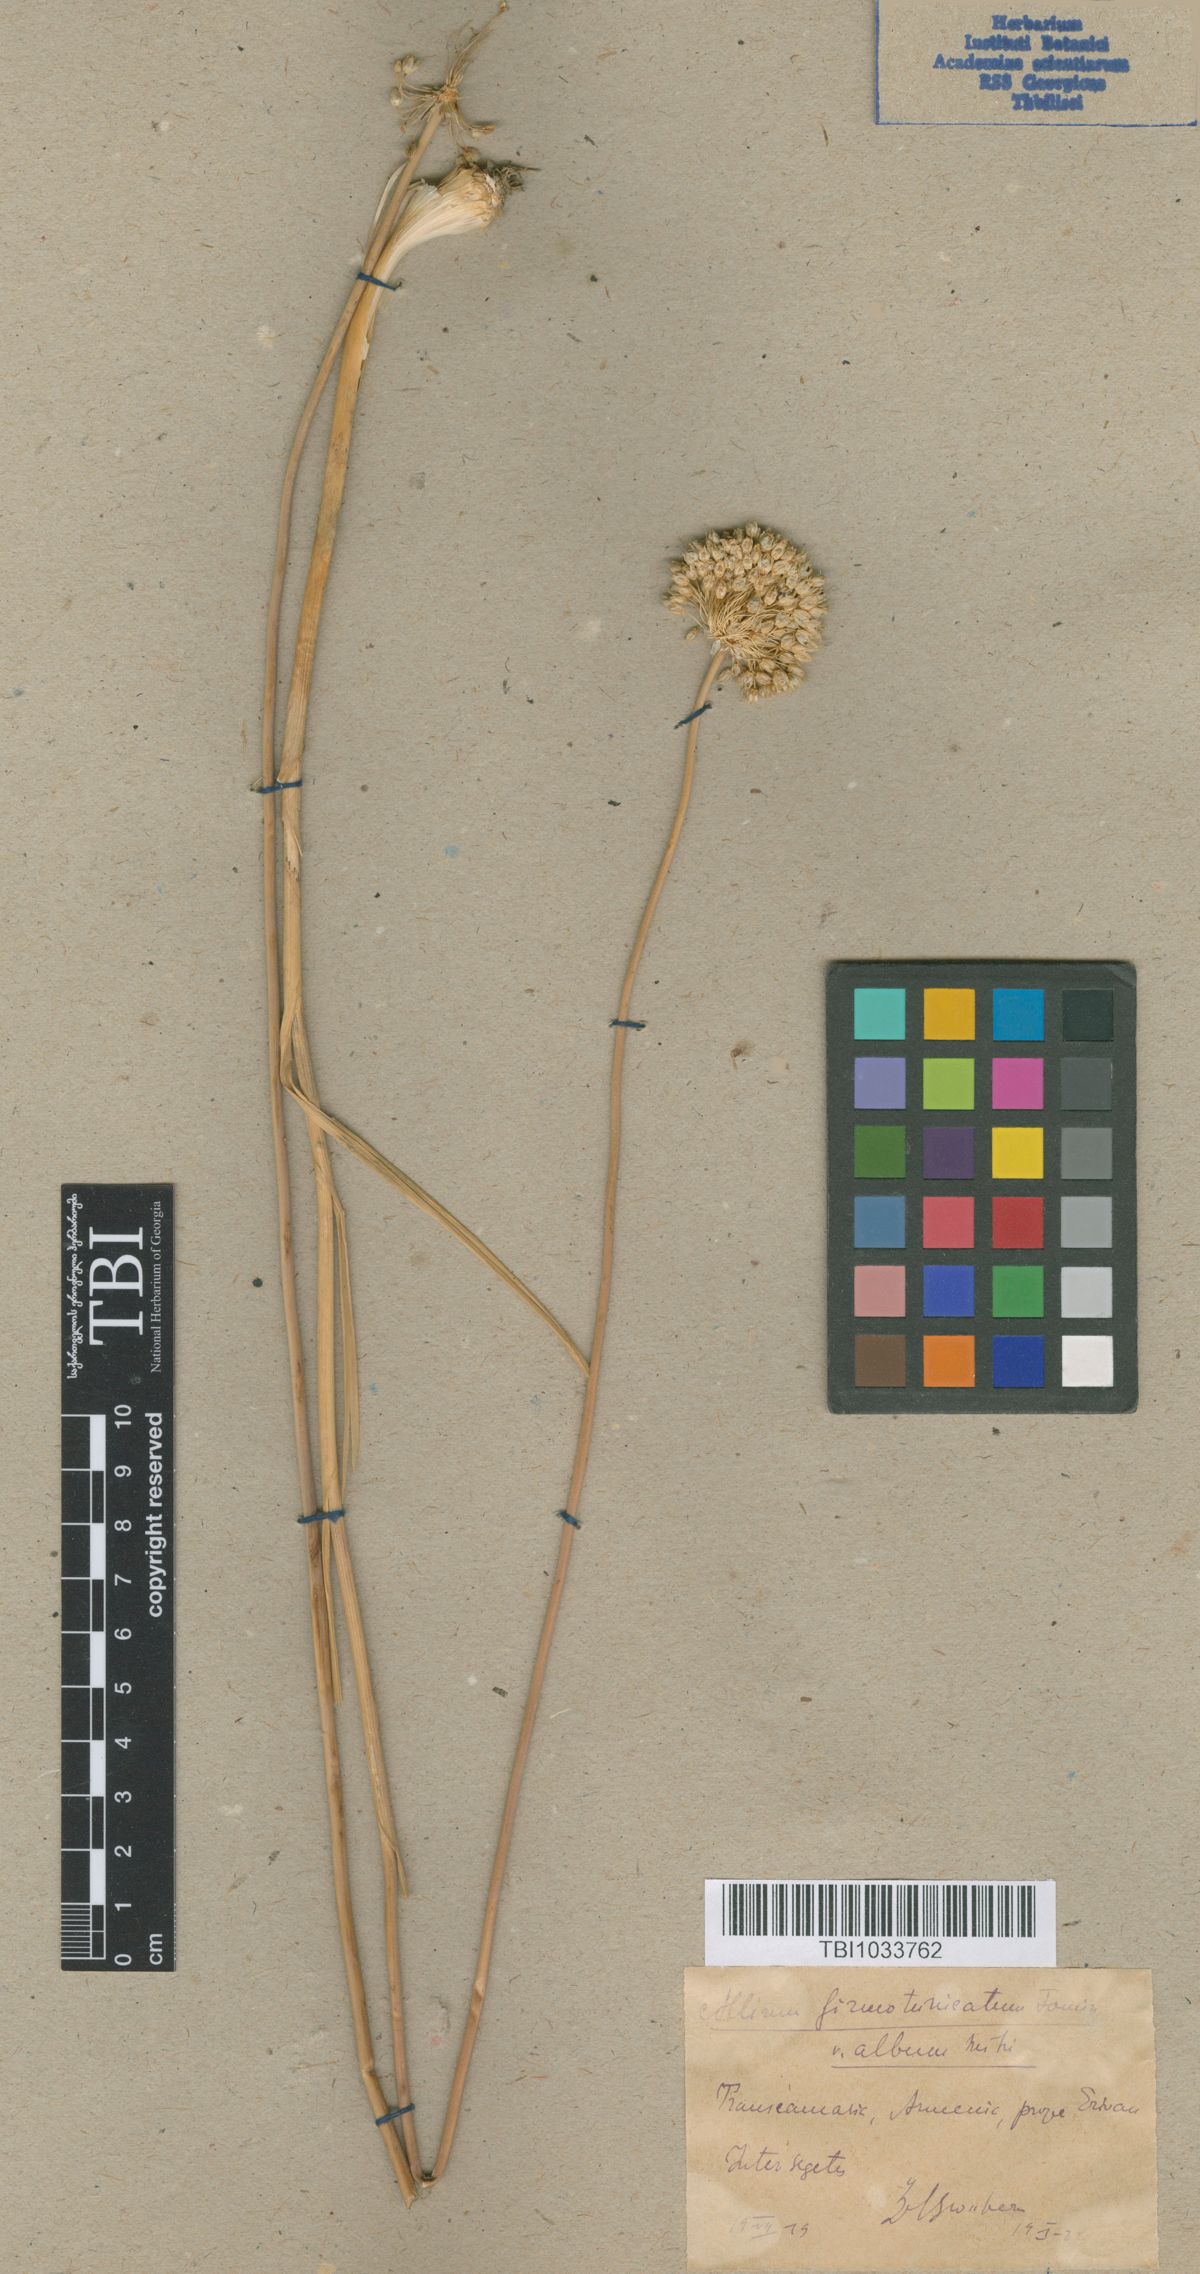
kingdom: Plantae
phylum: Tracheophyta
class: Liliopsida
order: Asparagales
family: Amaryllidaceae
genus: Allium
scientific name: Allium ampeloprasum
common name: Wild leek
